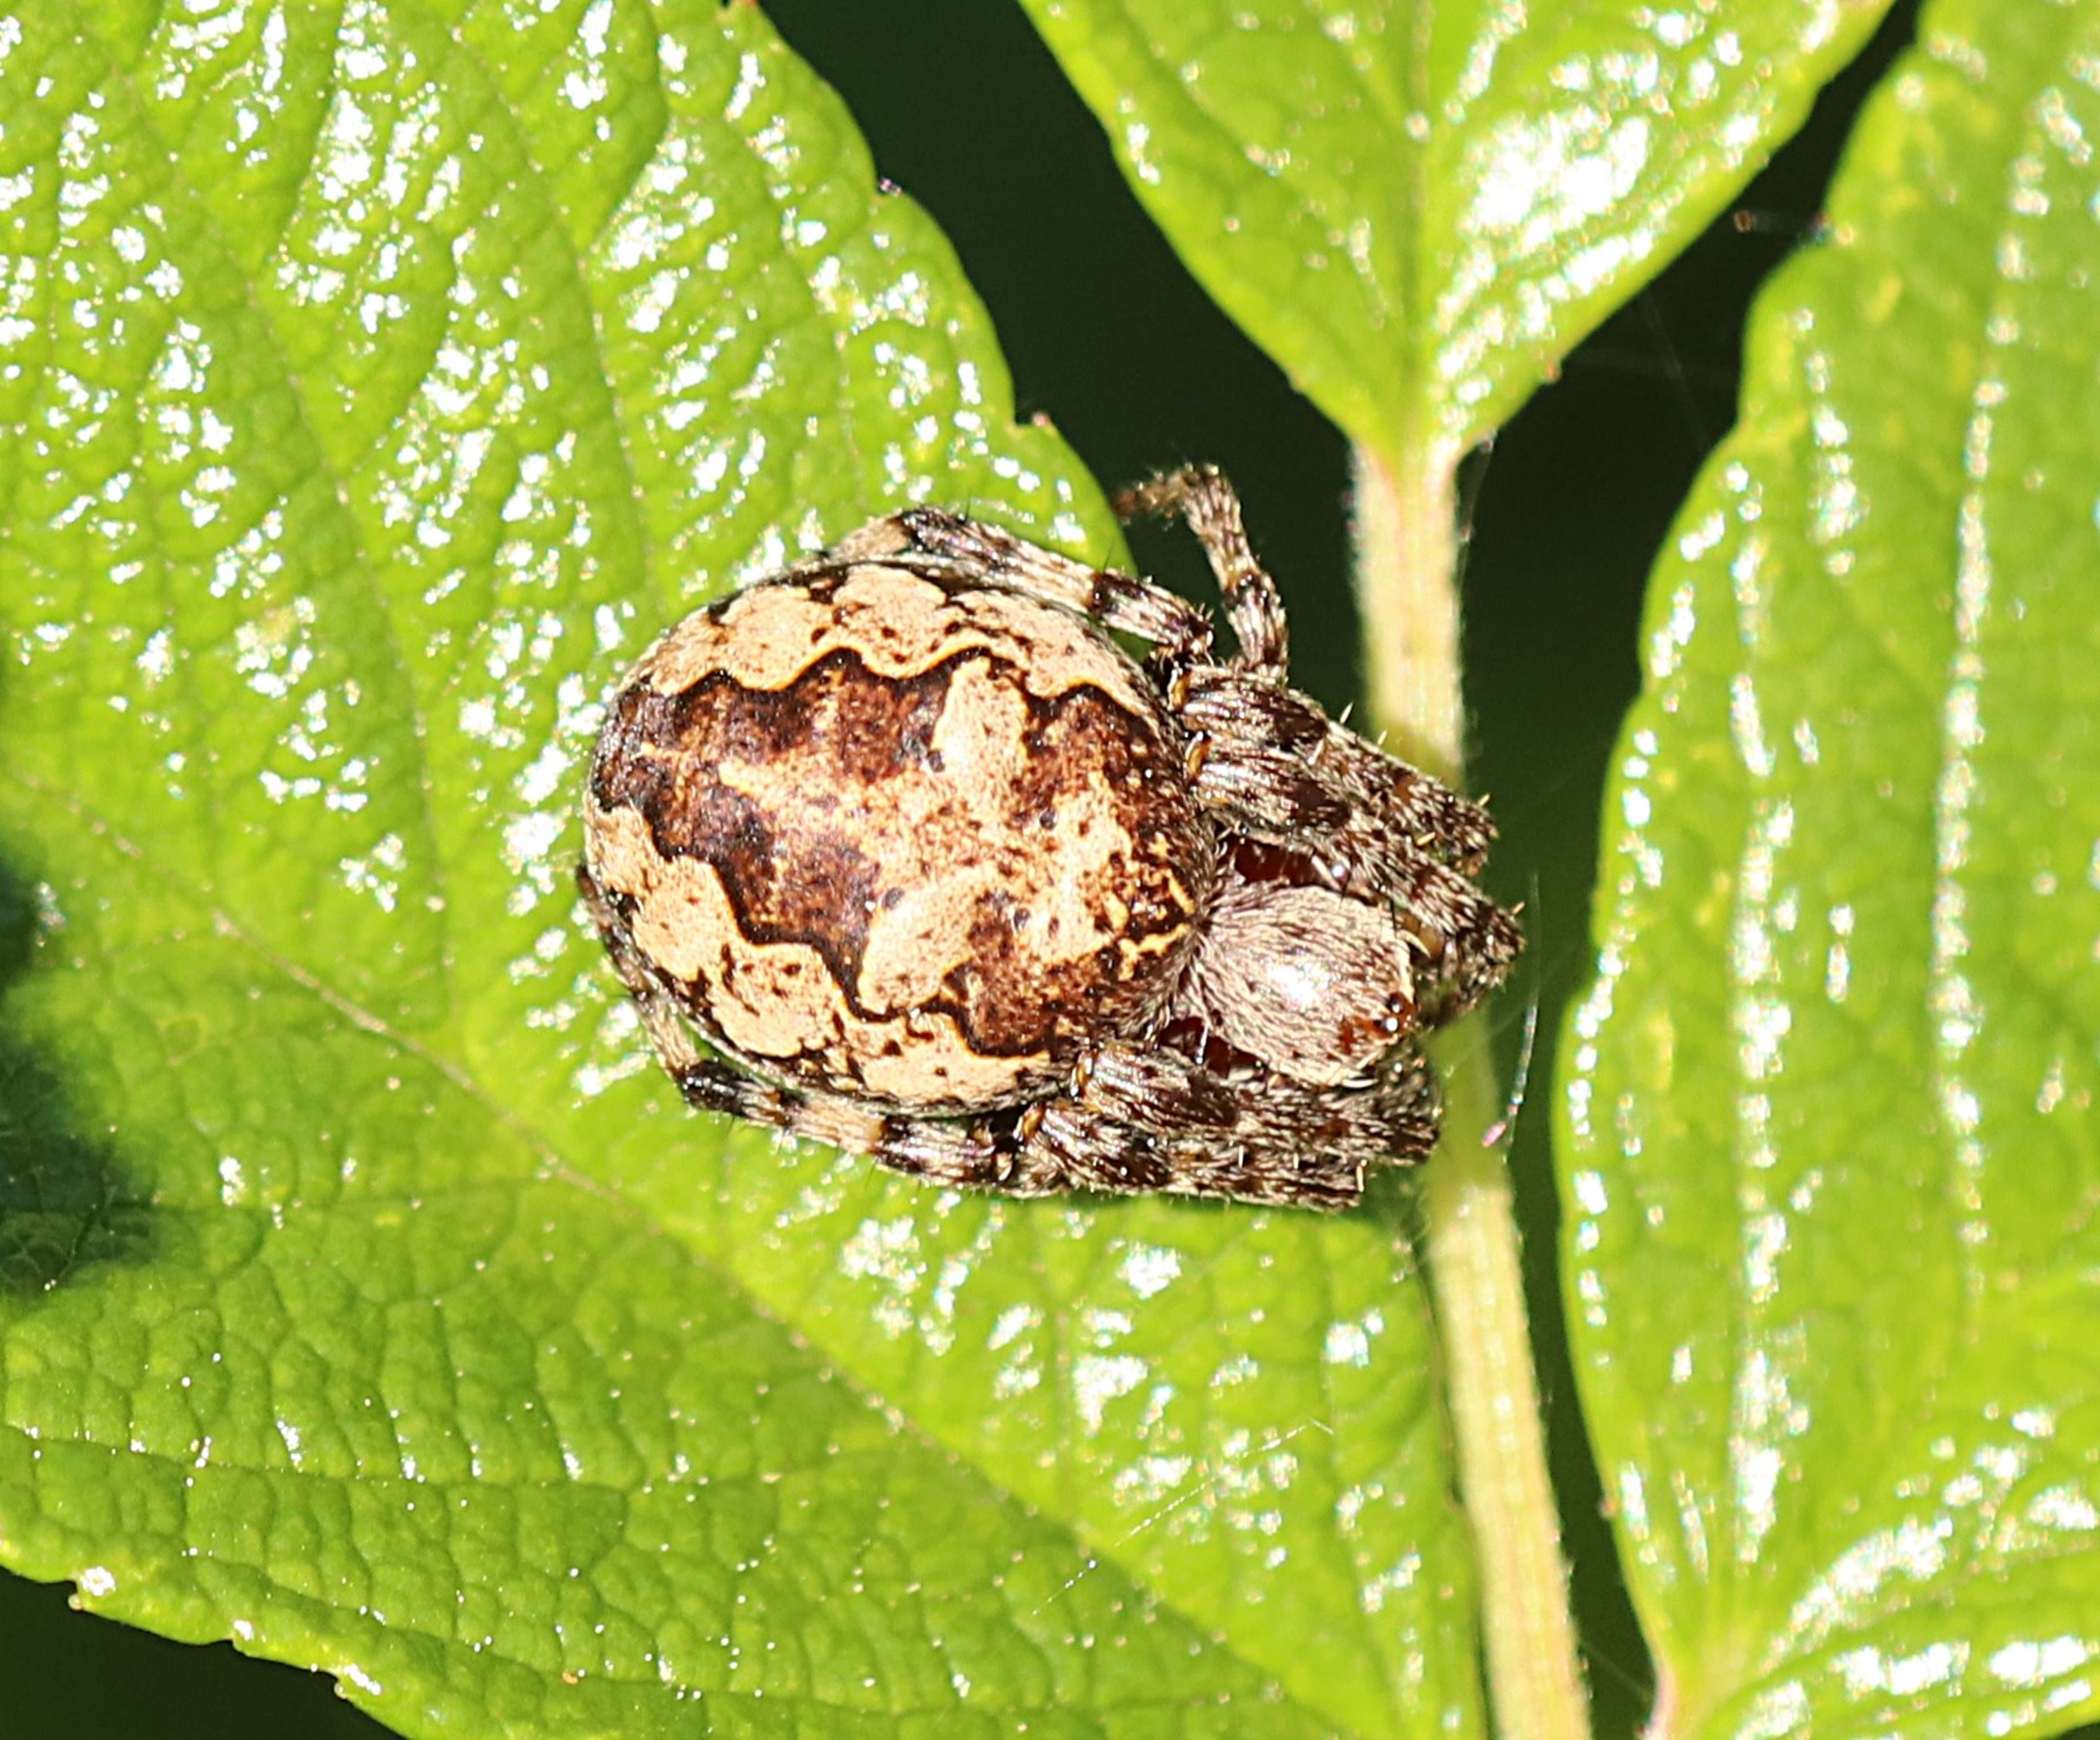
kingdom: Animalia
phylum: Arthropoda
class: Arachnida
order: Araneae
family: Araneidae
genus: Larinioides
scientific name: Larinioides
